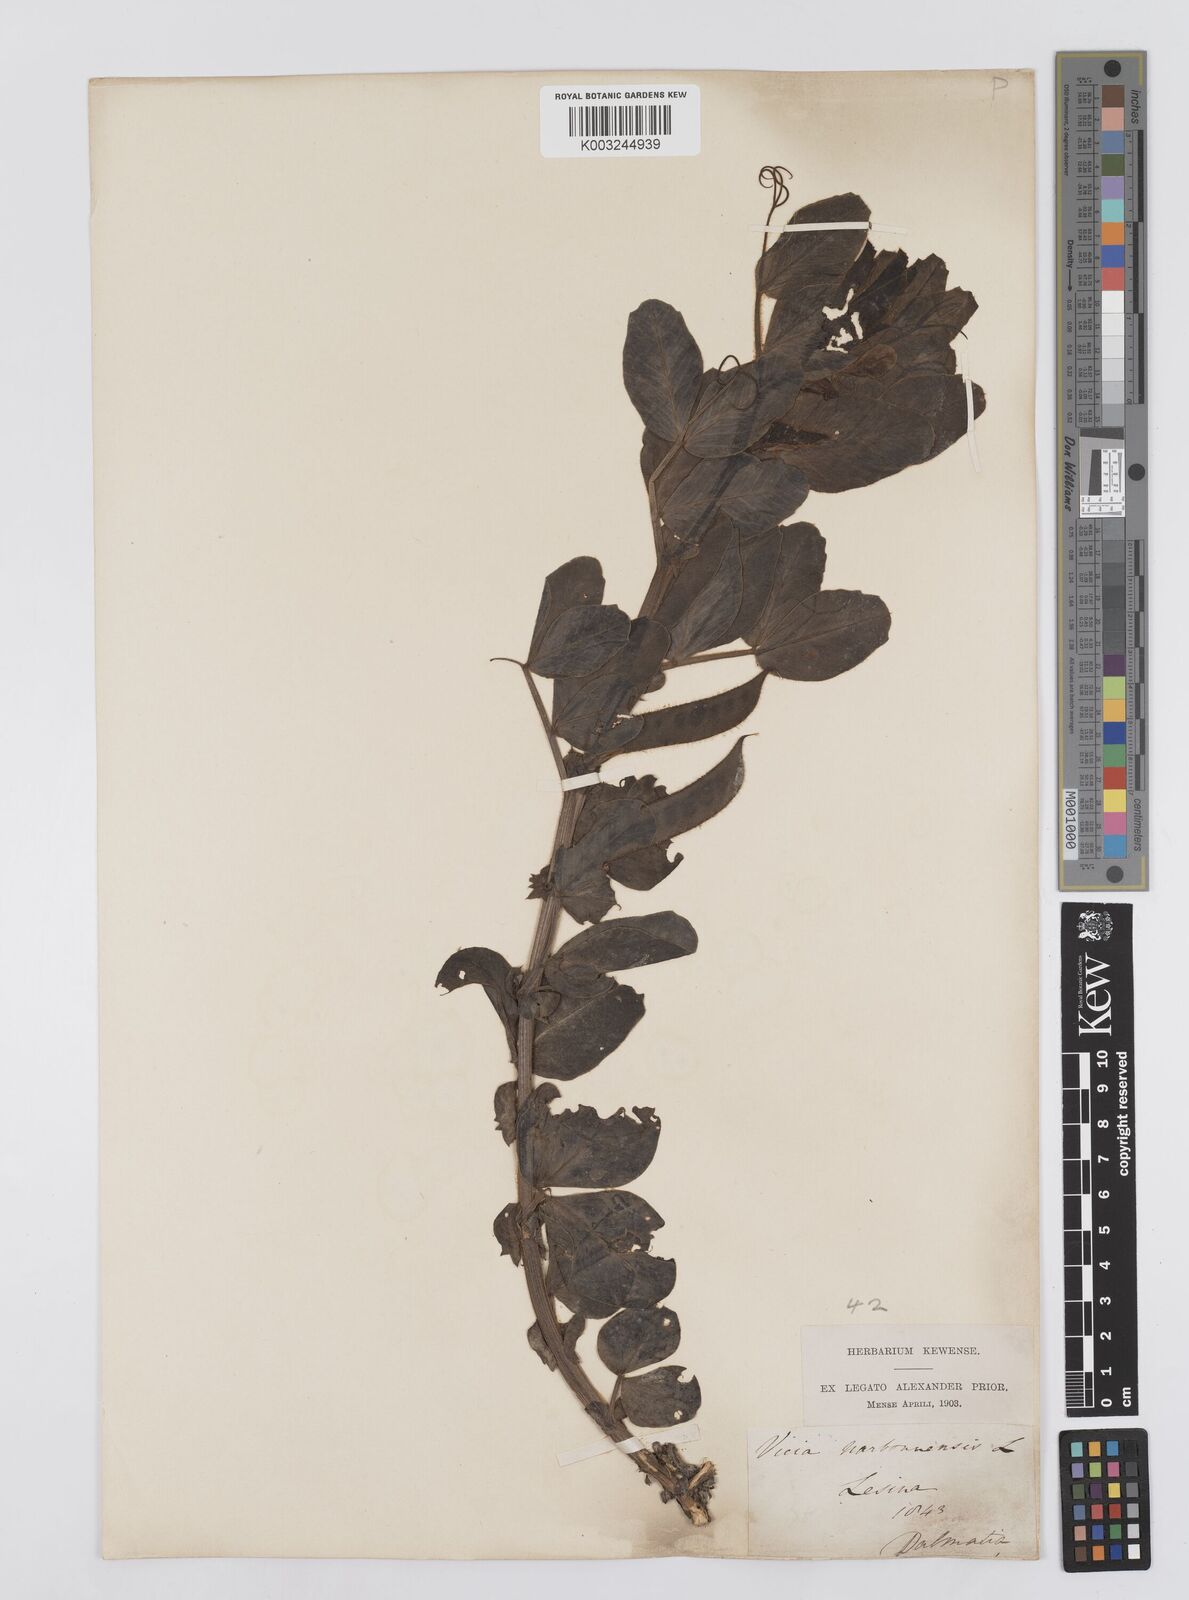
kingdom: Plantae
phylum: Tracheophyta
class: Magnoliopsida
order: Fabales
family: Fabaceae
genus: Vicia
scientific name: Vicia narbonensis
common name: Narbonne vetch
